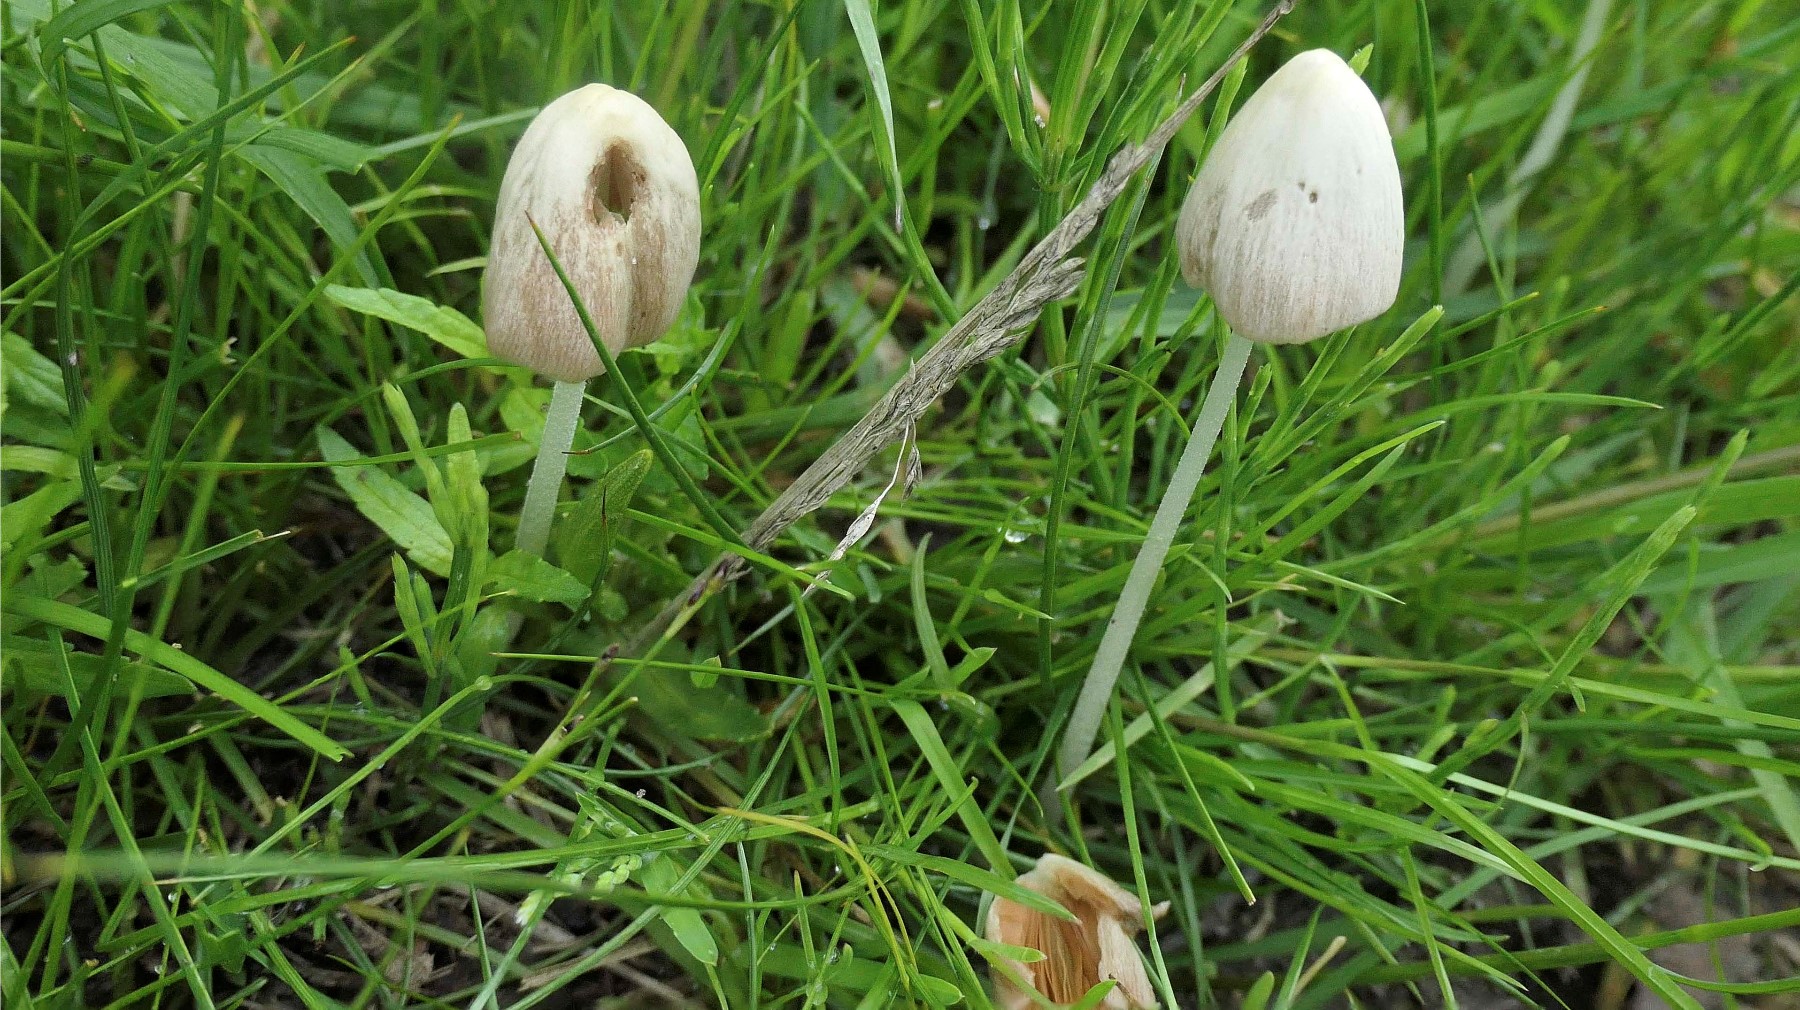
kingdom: Fungi
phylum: Basidiomycota
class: Agaricomycetes
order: Agaricales
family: Bolbitiaceae
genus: Conocybe
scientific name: Conocybe apala
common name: mælkehvid keglehat
